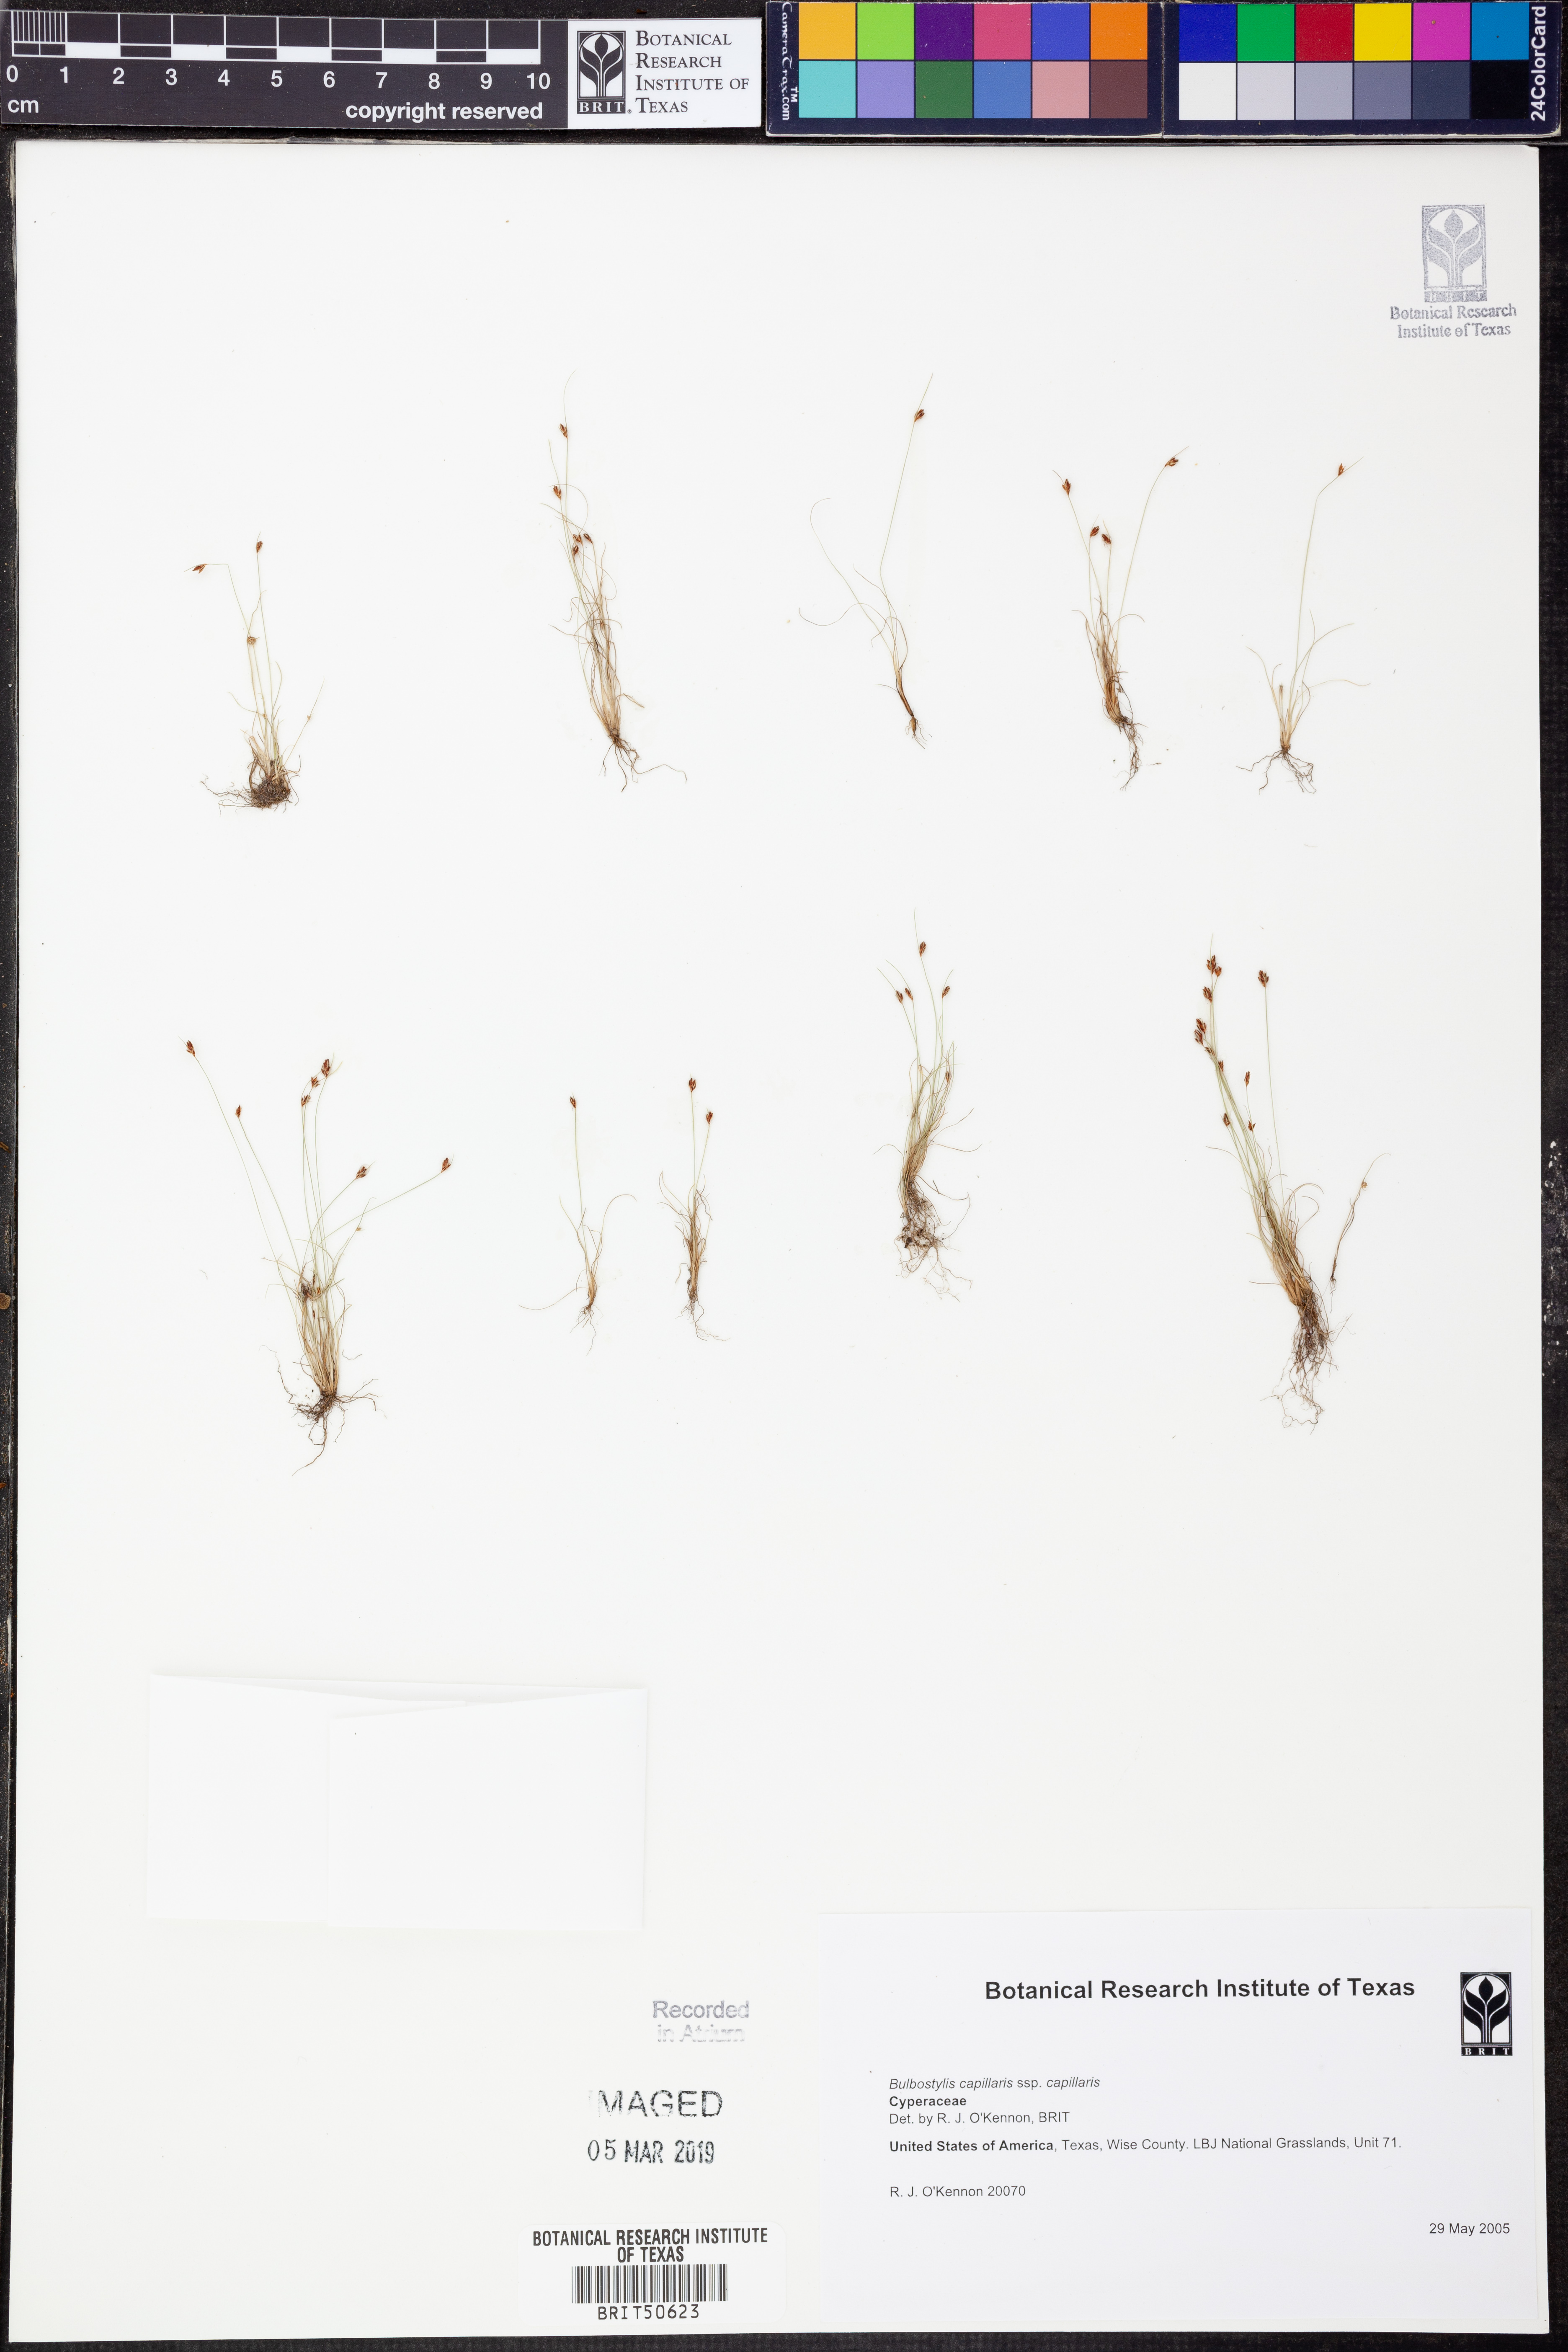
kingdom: Plantae
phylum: Tracheophyta
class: Liliopsida
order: Poales
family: Cyperaceae
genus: Bulbostylis
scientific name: Bulbostylis capillaris
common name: Densetuft hairsedge
